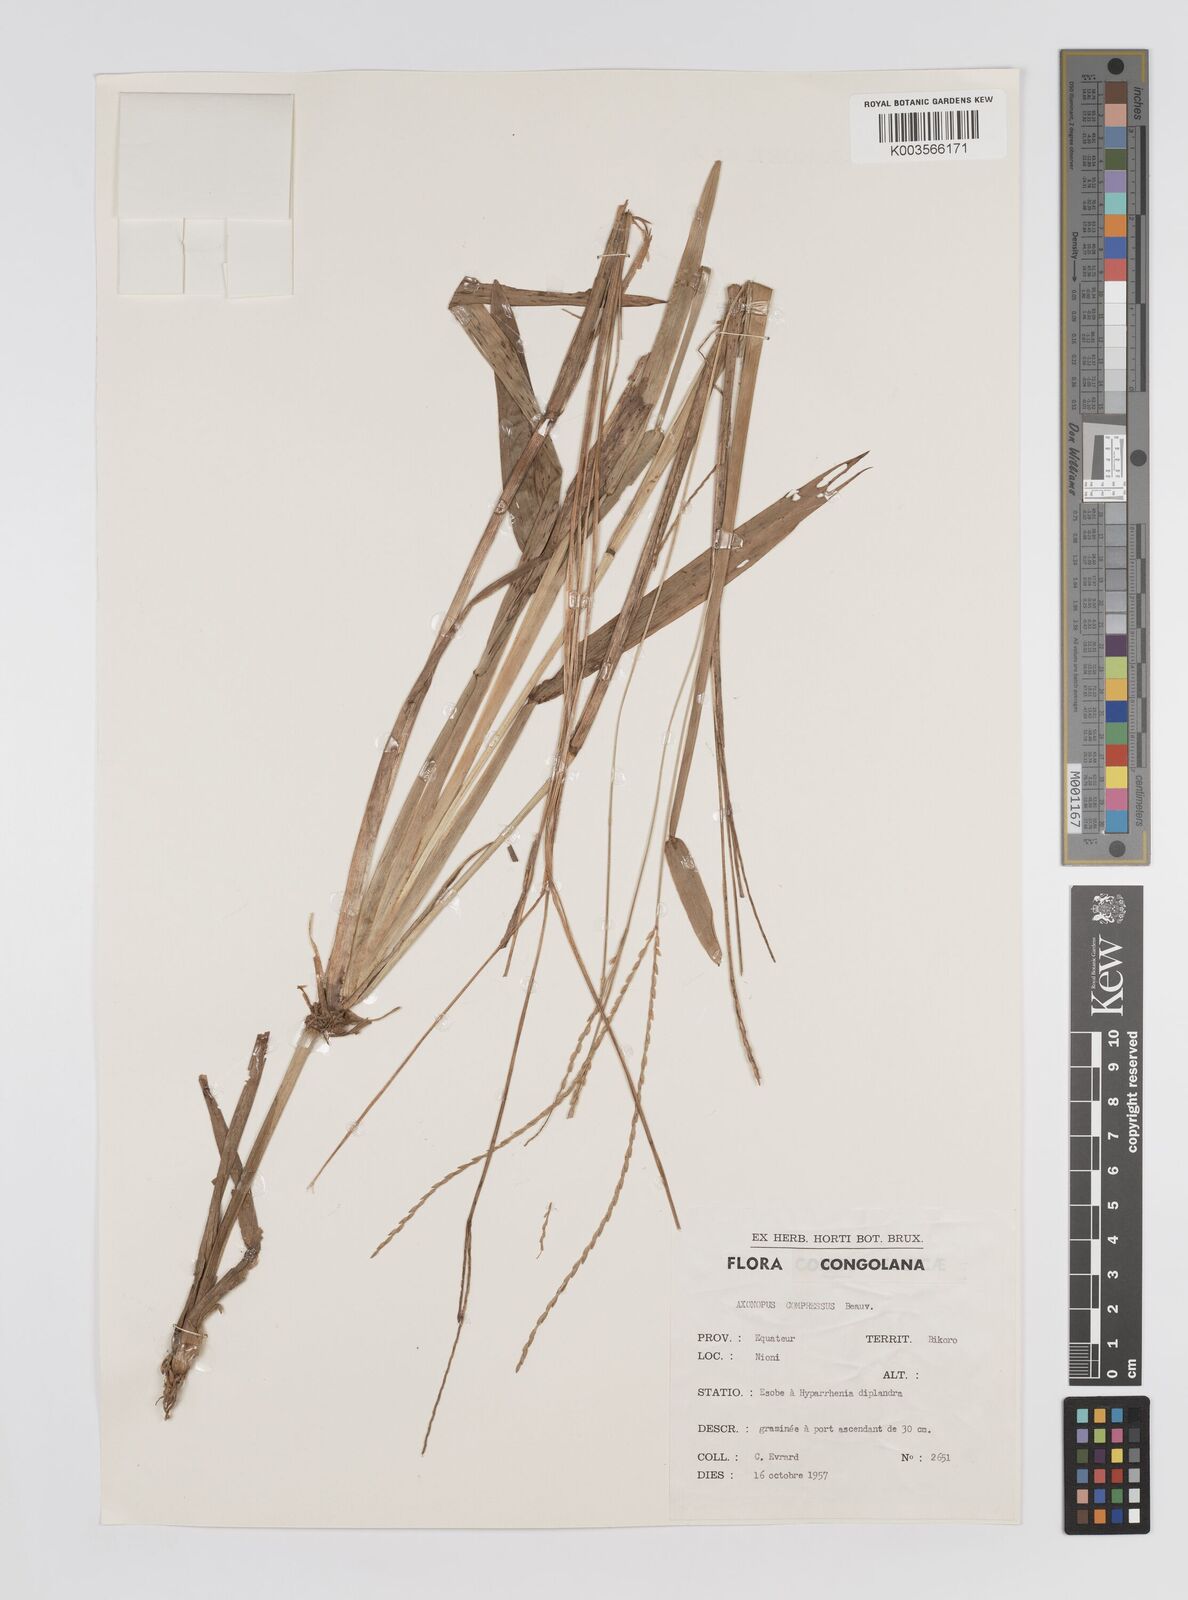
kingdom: Plantae
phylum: Tracheophyta
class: Liliopsida
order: Poales
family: Poaceae
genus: Axonopus
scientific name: Axonopus flexuosus
